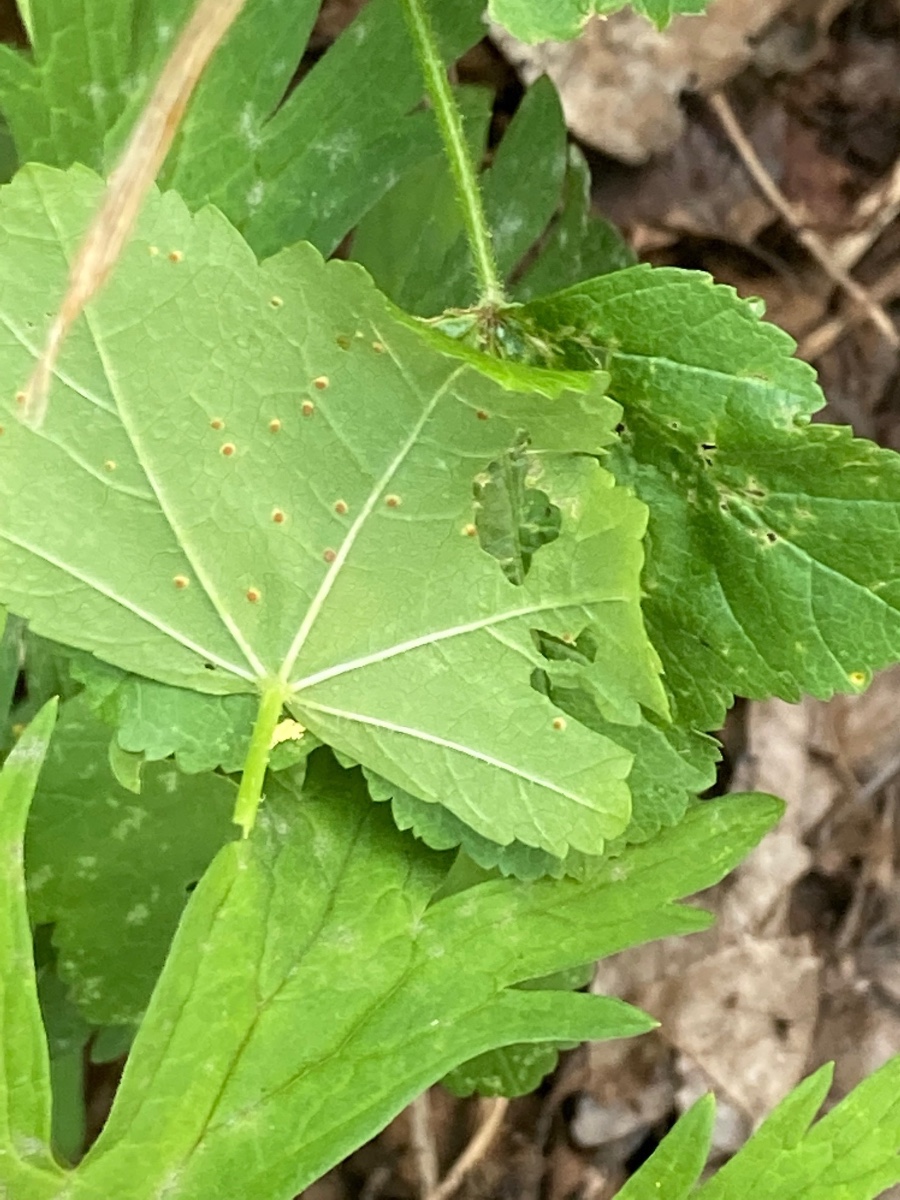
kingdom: Fungi
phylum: Basidiomycota
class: Pucciniomycetes
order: Pucciniales
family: Pucciniaceae
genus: Puccinia
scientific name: Puccinia malvacearum
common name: stokrose-tvecellerust
